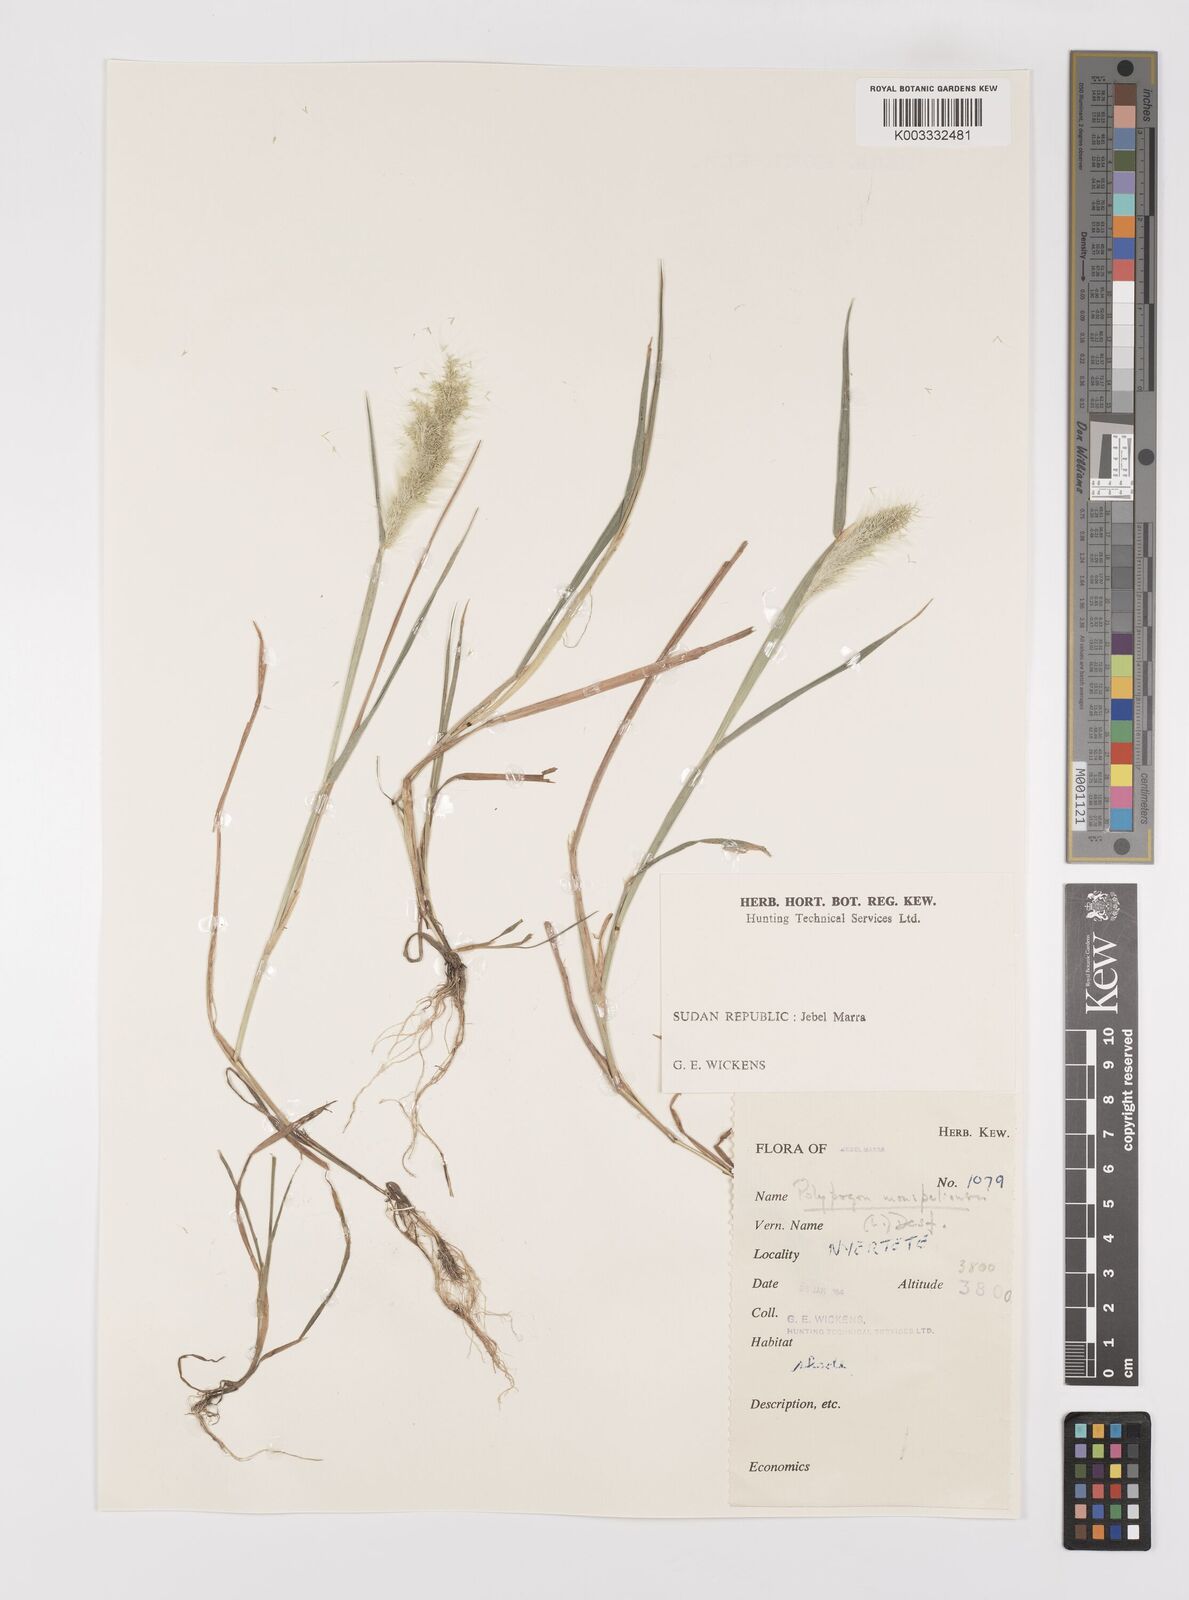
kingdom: Plantae
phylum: Tracheophyta
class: Liliopsida
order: Poales
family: Poaceae
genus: Polypogon
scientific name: Polypogon monspeliensis
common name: Annual rabbitsfoot grass
